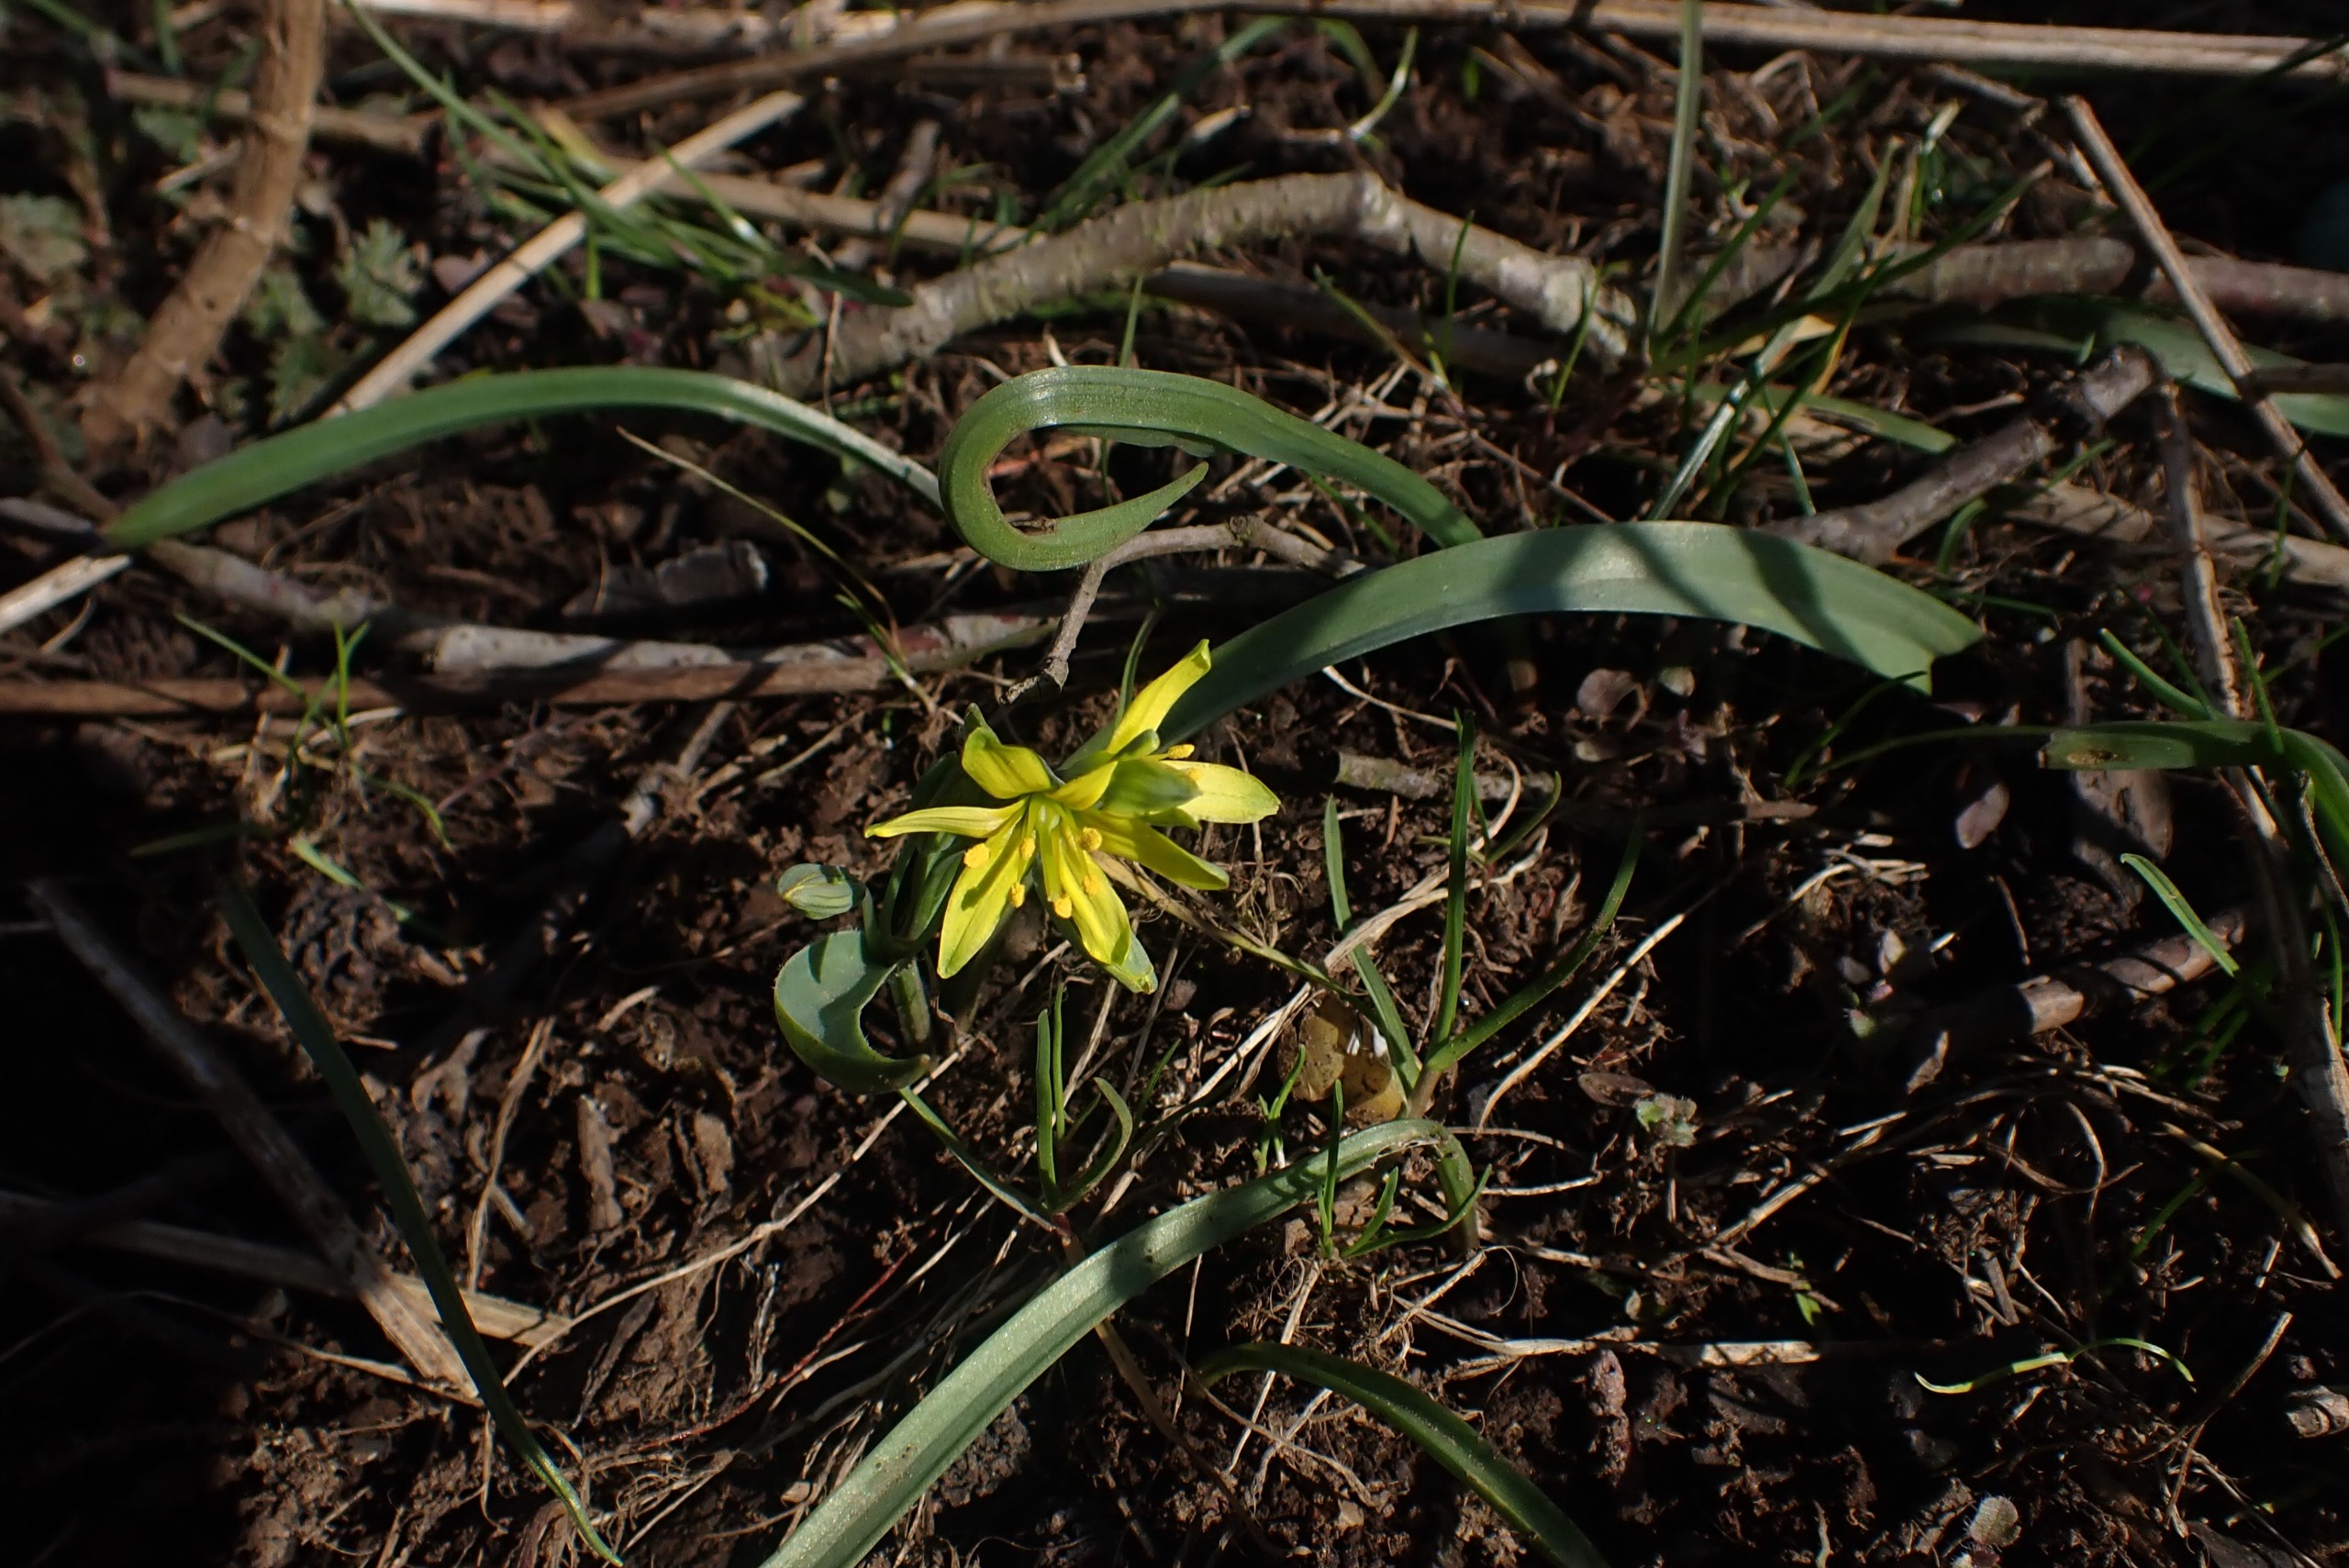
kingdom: Plantae
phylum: Tracheophyta
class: Liliopsida
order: Liliales
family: Liliaceae
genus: Gagea
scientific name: Gagea lutea
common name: Almindelig guldstjerne
